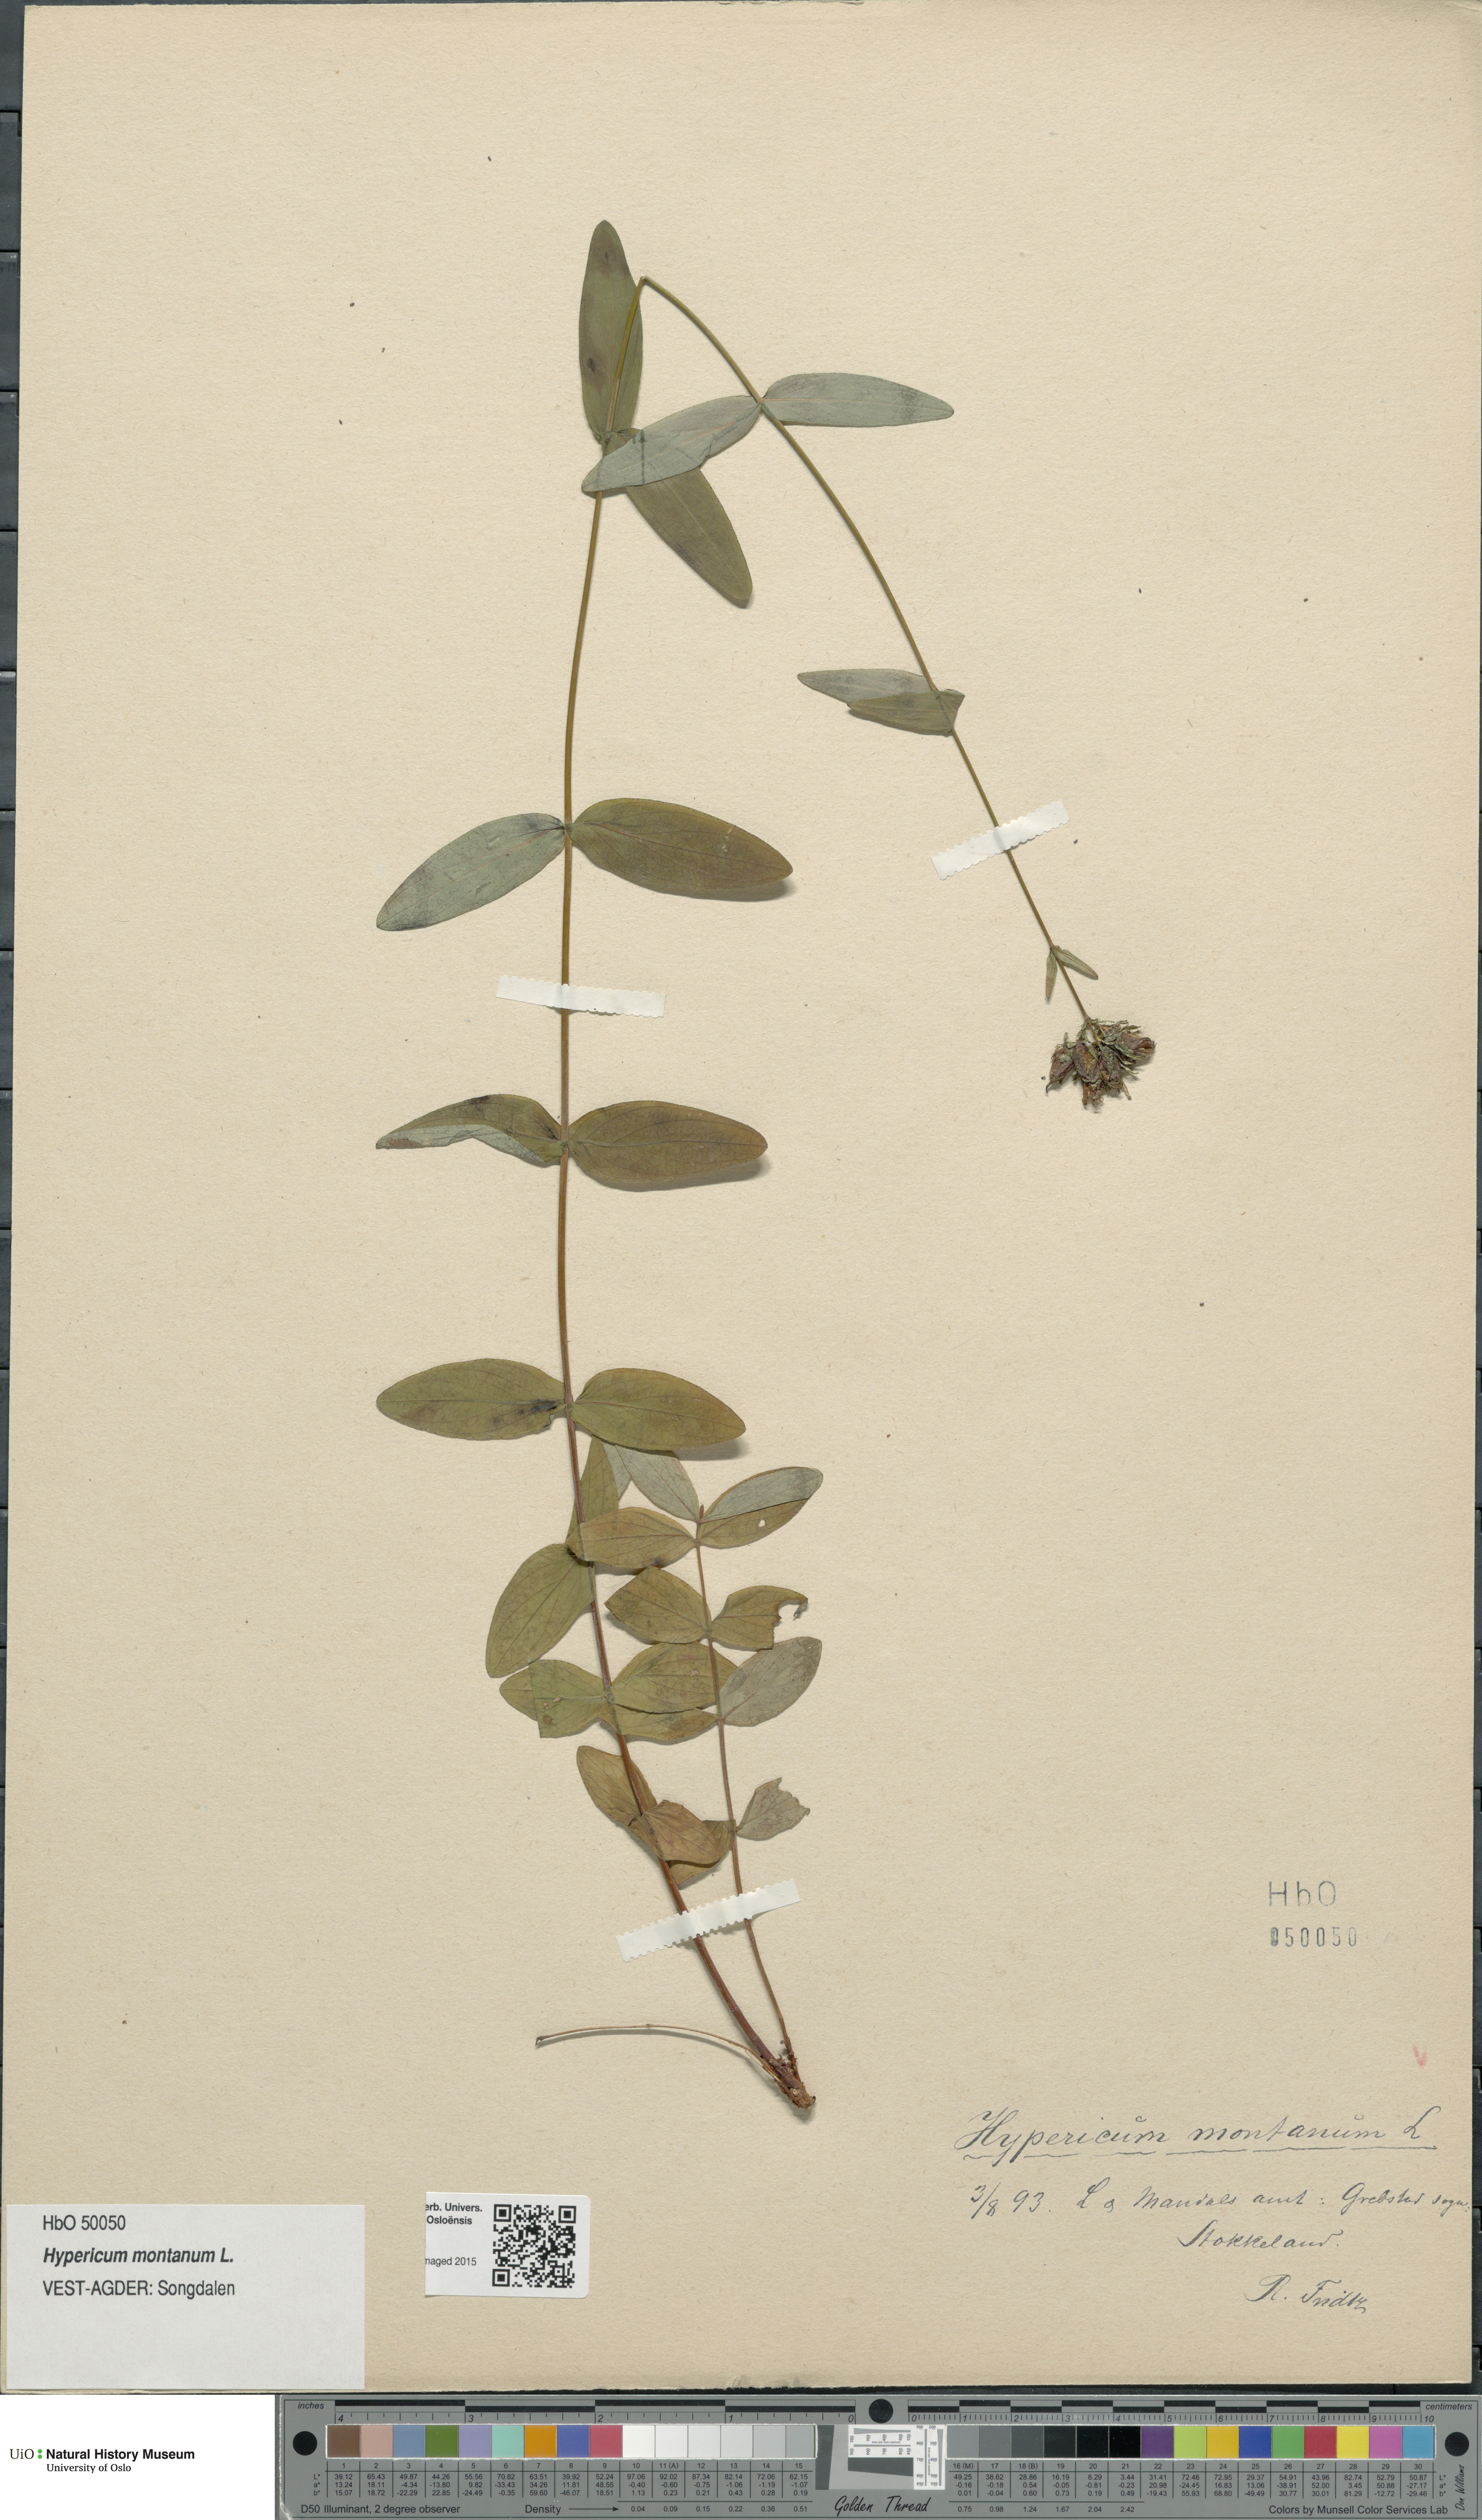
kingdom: Plantae
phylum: Tracheophyta
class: Magnoliopsida
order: Malpighiales
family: Hypericaceae
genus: Hypericum
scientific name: Hypericum montanum
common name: Pale st. john's-wort
